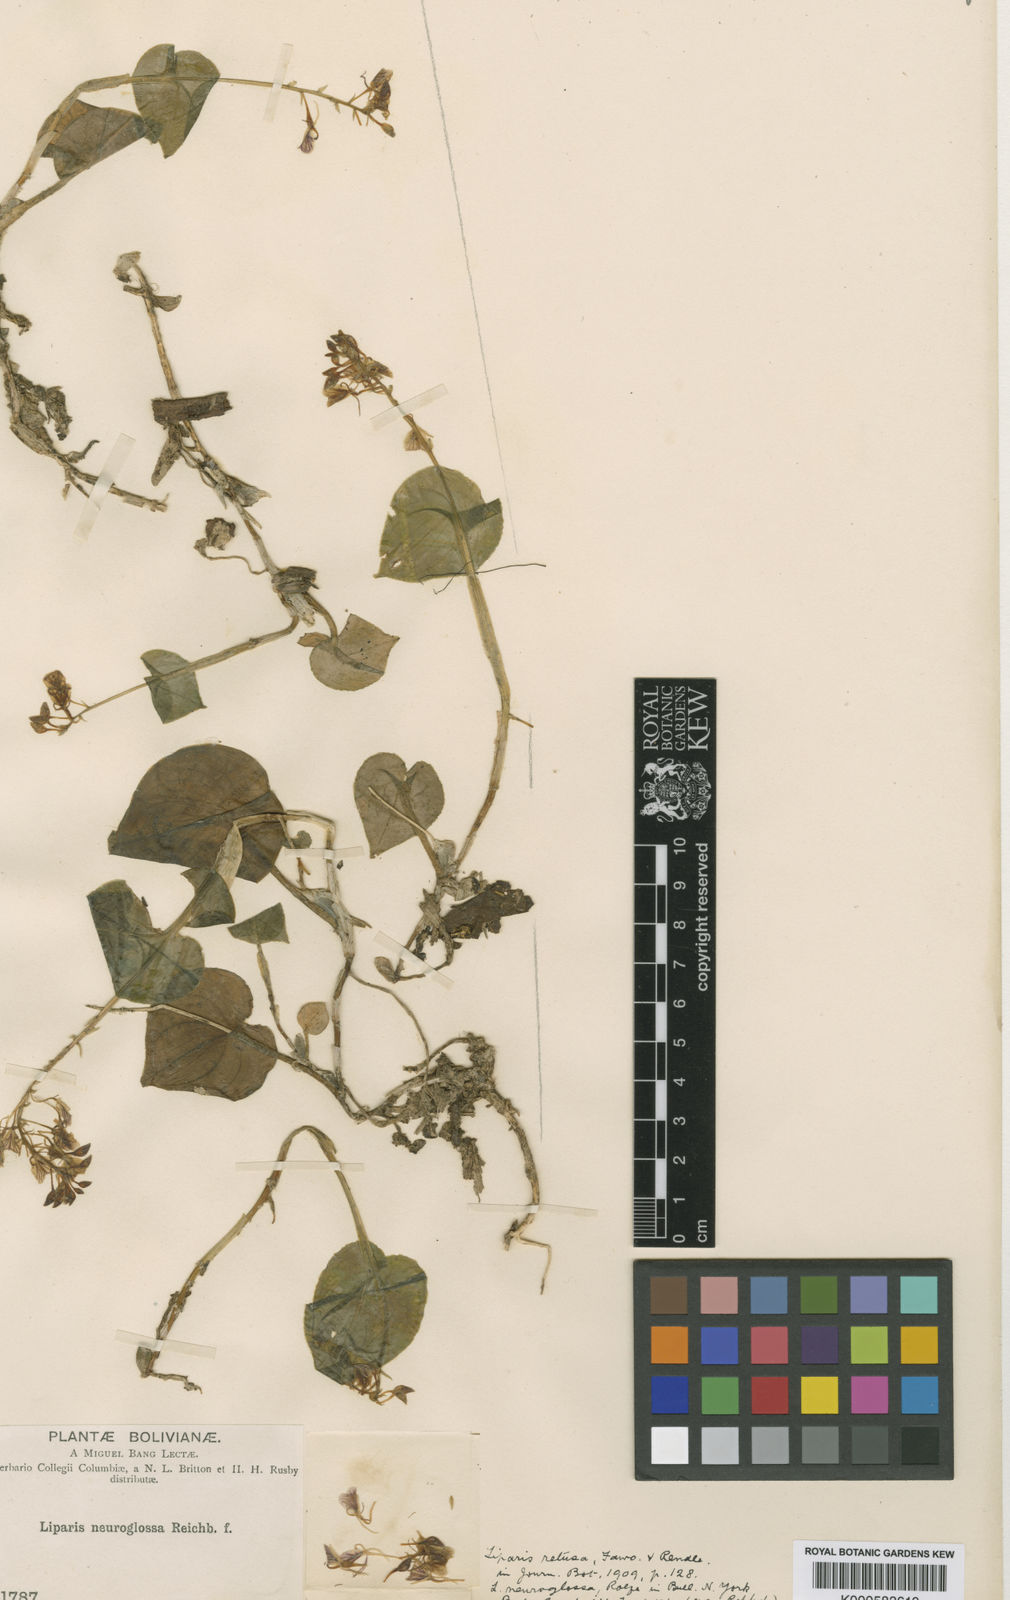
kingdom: Plantae
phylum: Tracheophyta
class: Liliopsida
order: Asparagales
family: Orchidaceae
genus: Liparis
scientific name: Liparis retusa
